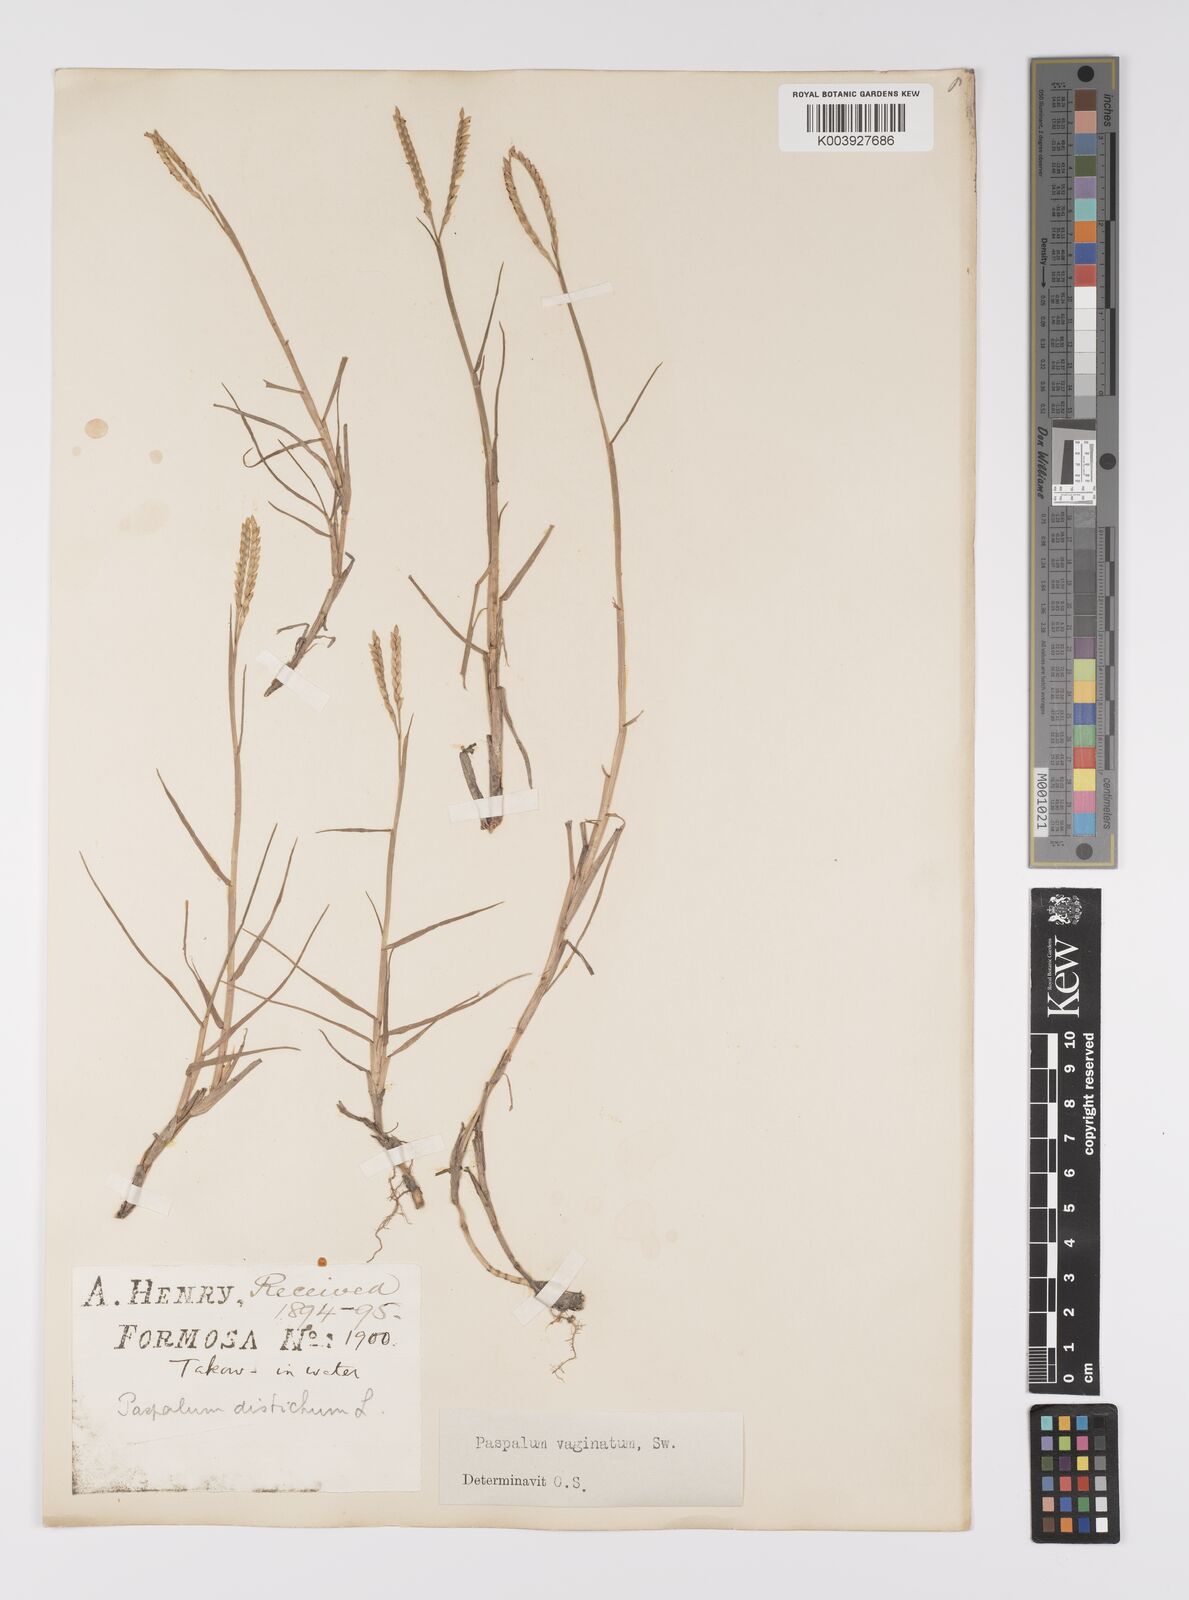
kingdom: Plantae
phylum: Tracheophyta
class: Liliopsida
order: Poales
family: Poaceae
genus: Paspalum
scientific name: Paspalum vaginatum
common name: Seashore paspalum
